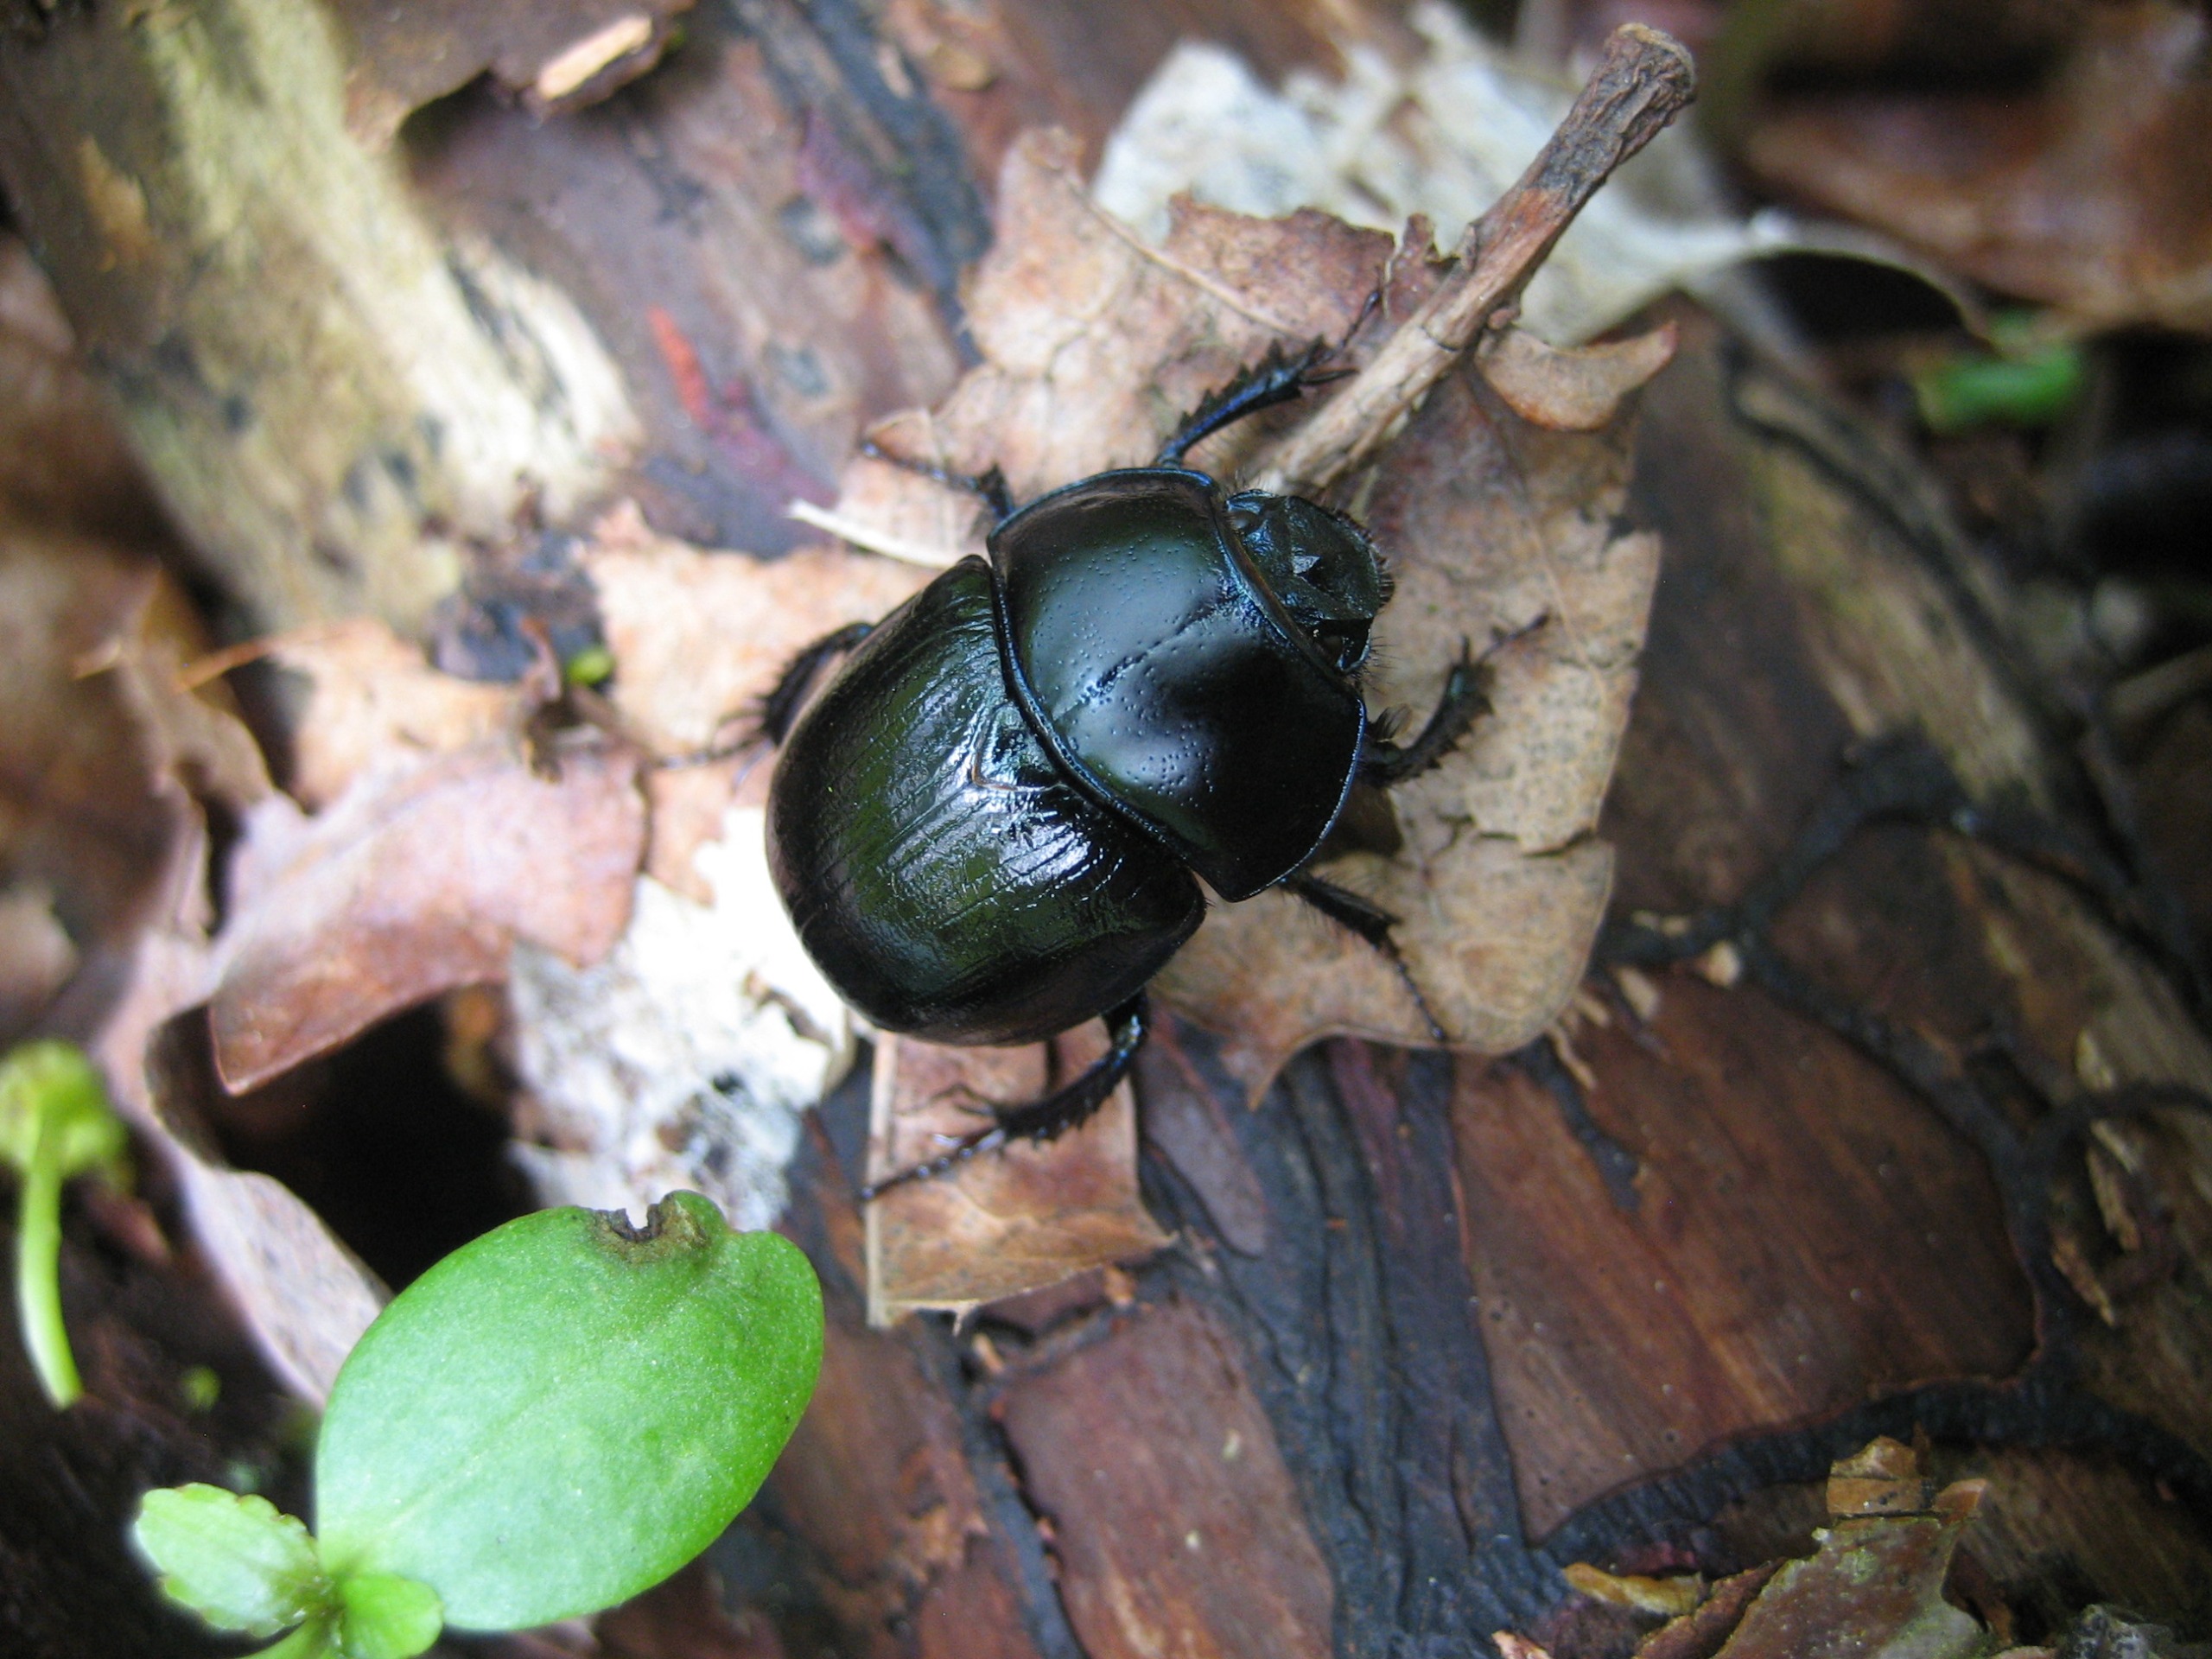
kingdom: Animalia
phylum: Arthropoda
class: Insecta
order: Coleoptera
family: Geotrupidae
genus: Anoplotrupes
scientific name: Anoplotrupes stercorosus
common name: Skovskarnbasse
